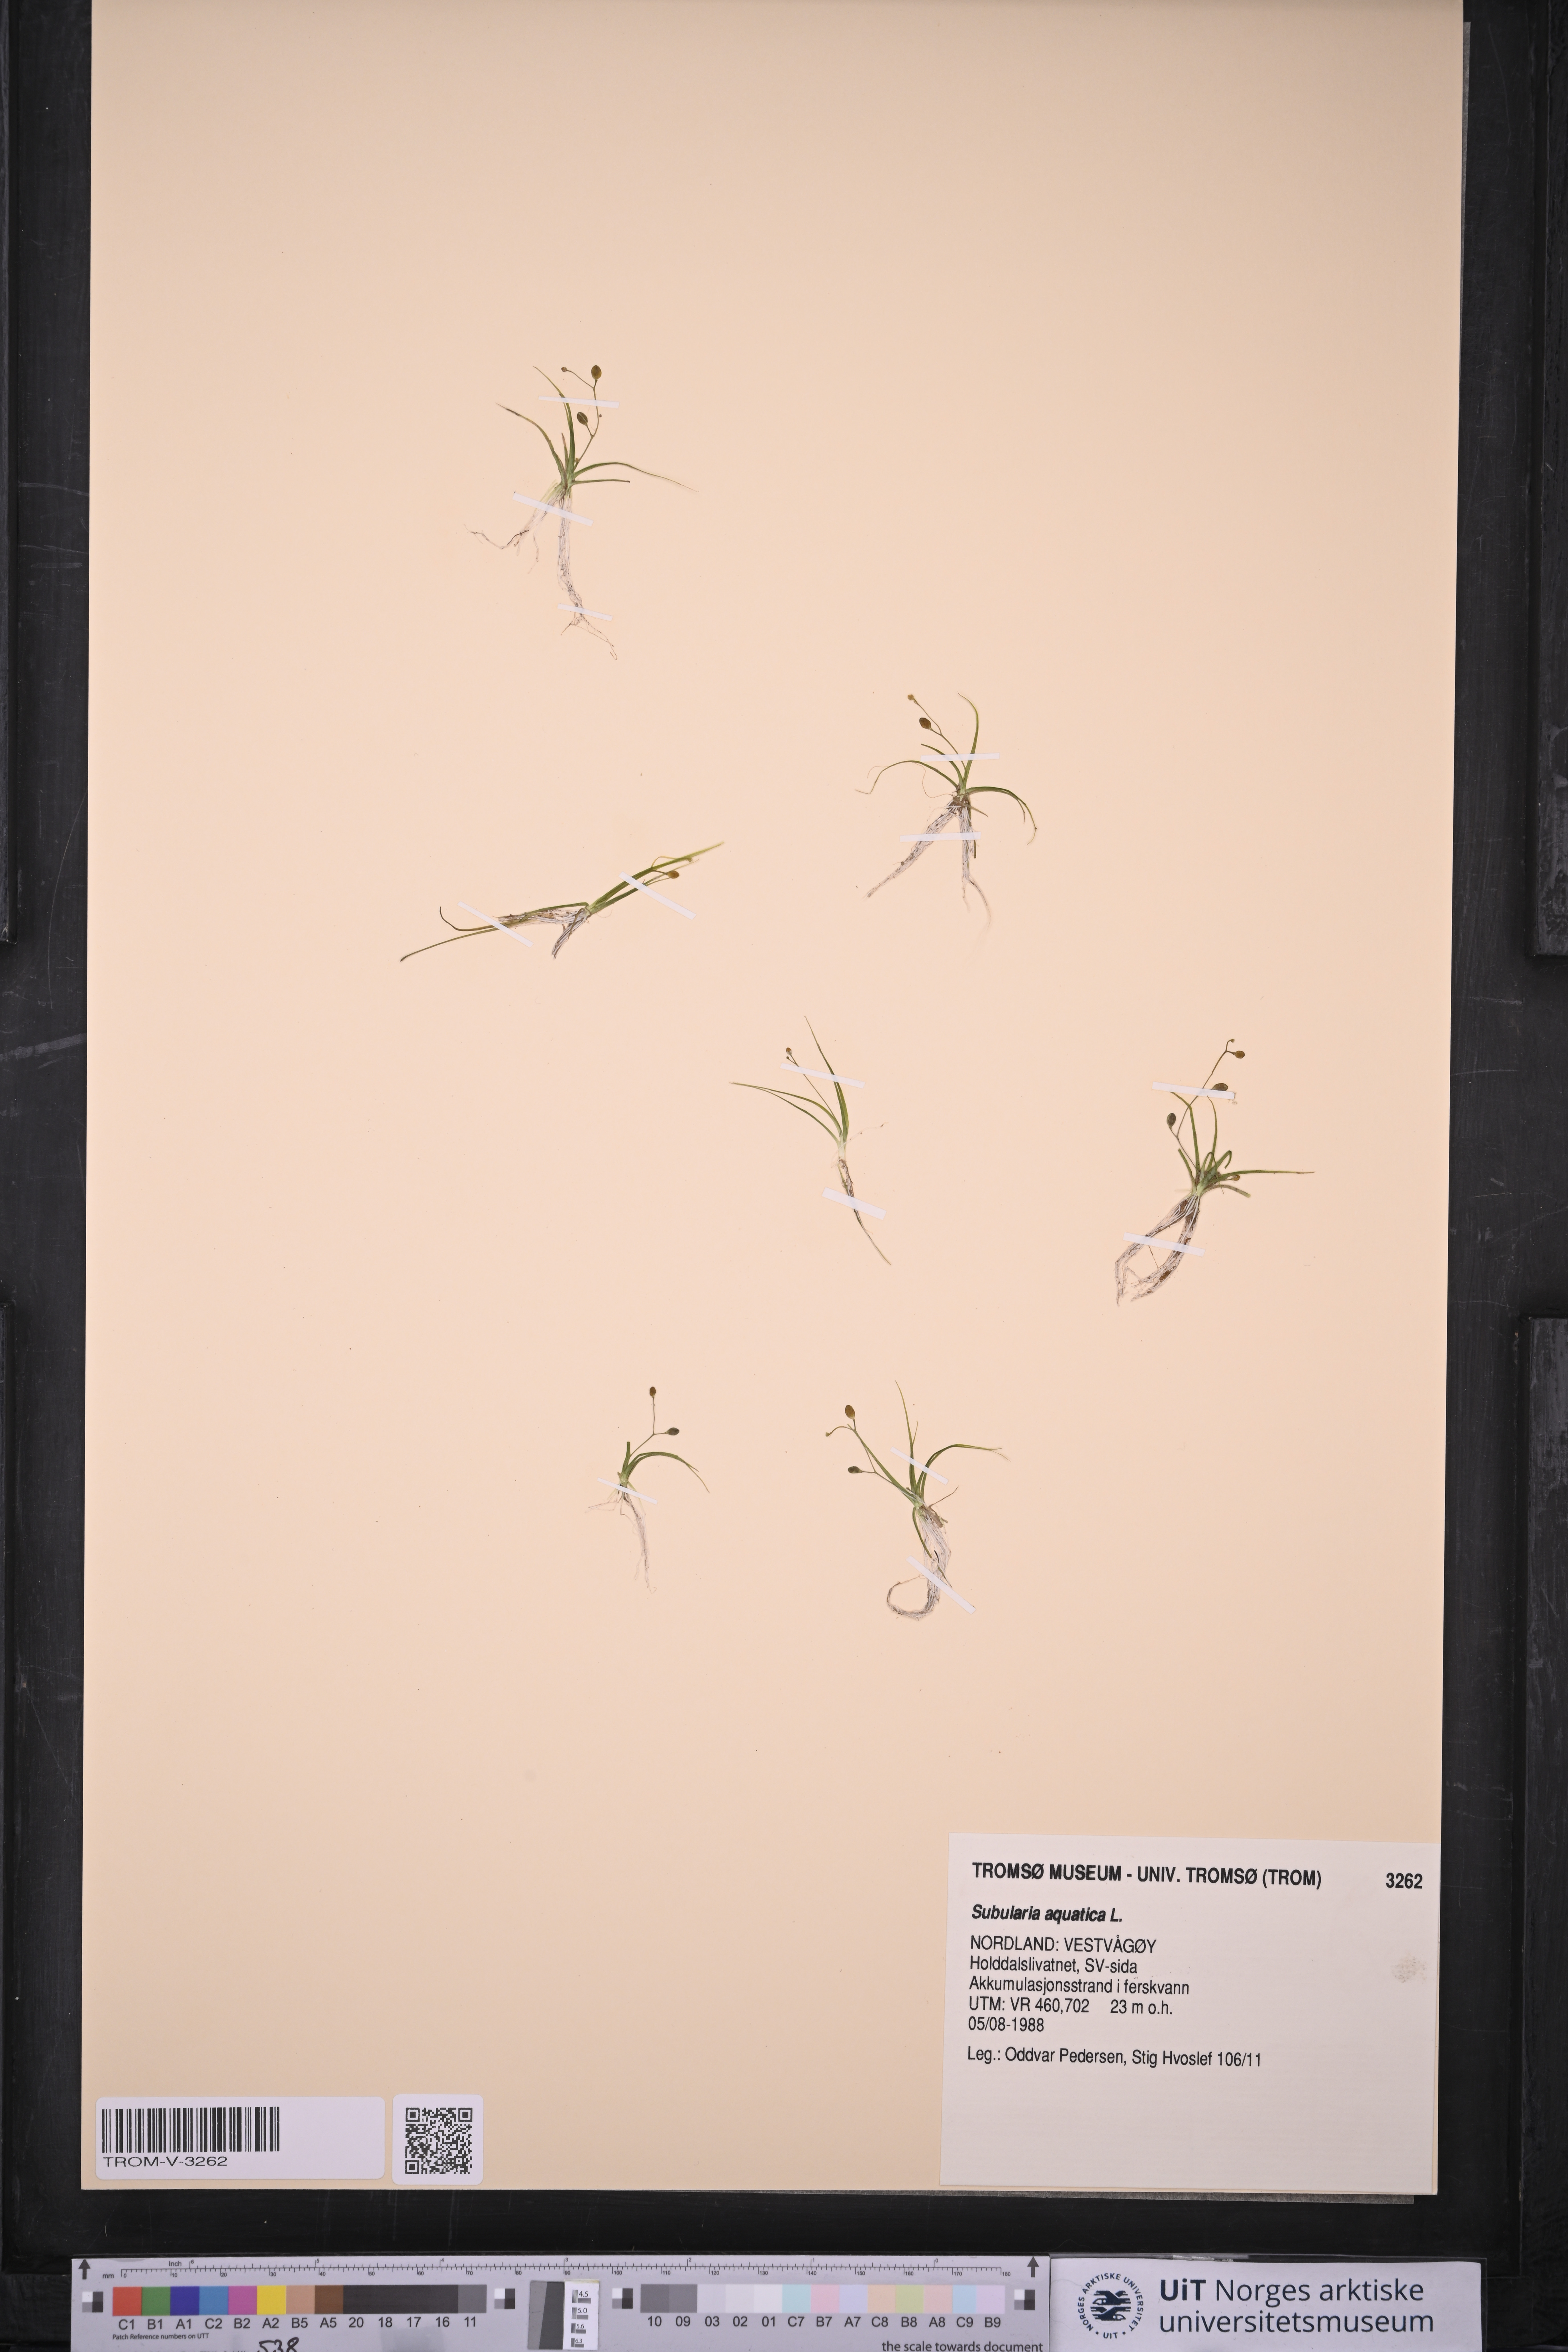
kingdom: Plantae
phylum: Tracheophyta
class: Magnoliopsida
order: Brassicales
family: Brassicaceae
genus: Subularia
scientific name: Subularia aquatica
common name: Awlwort
